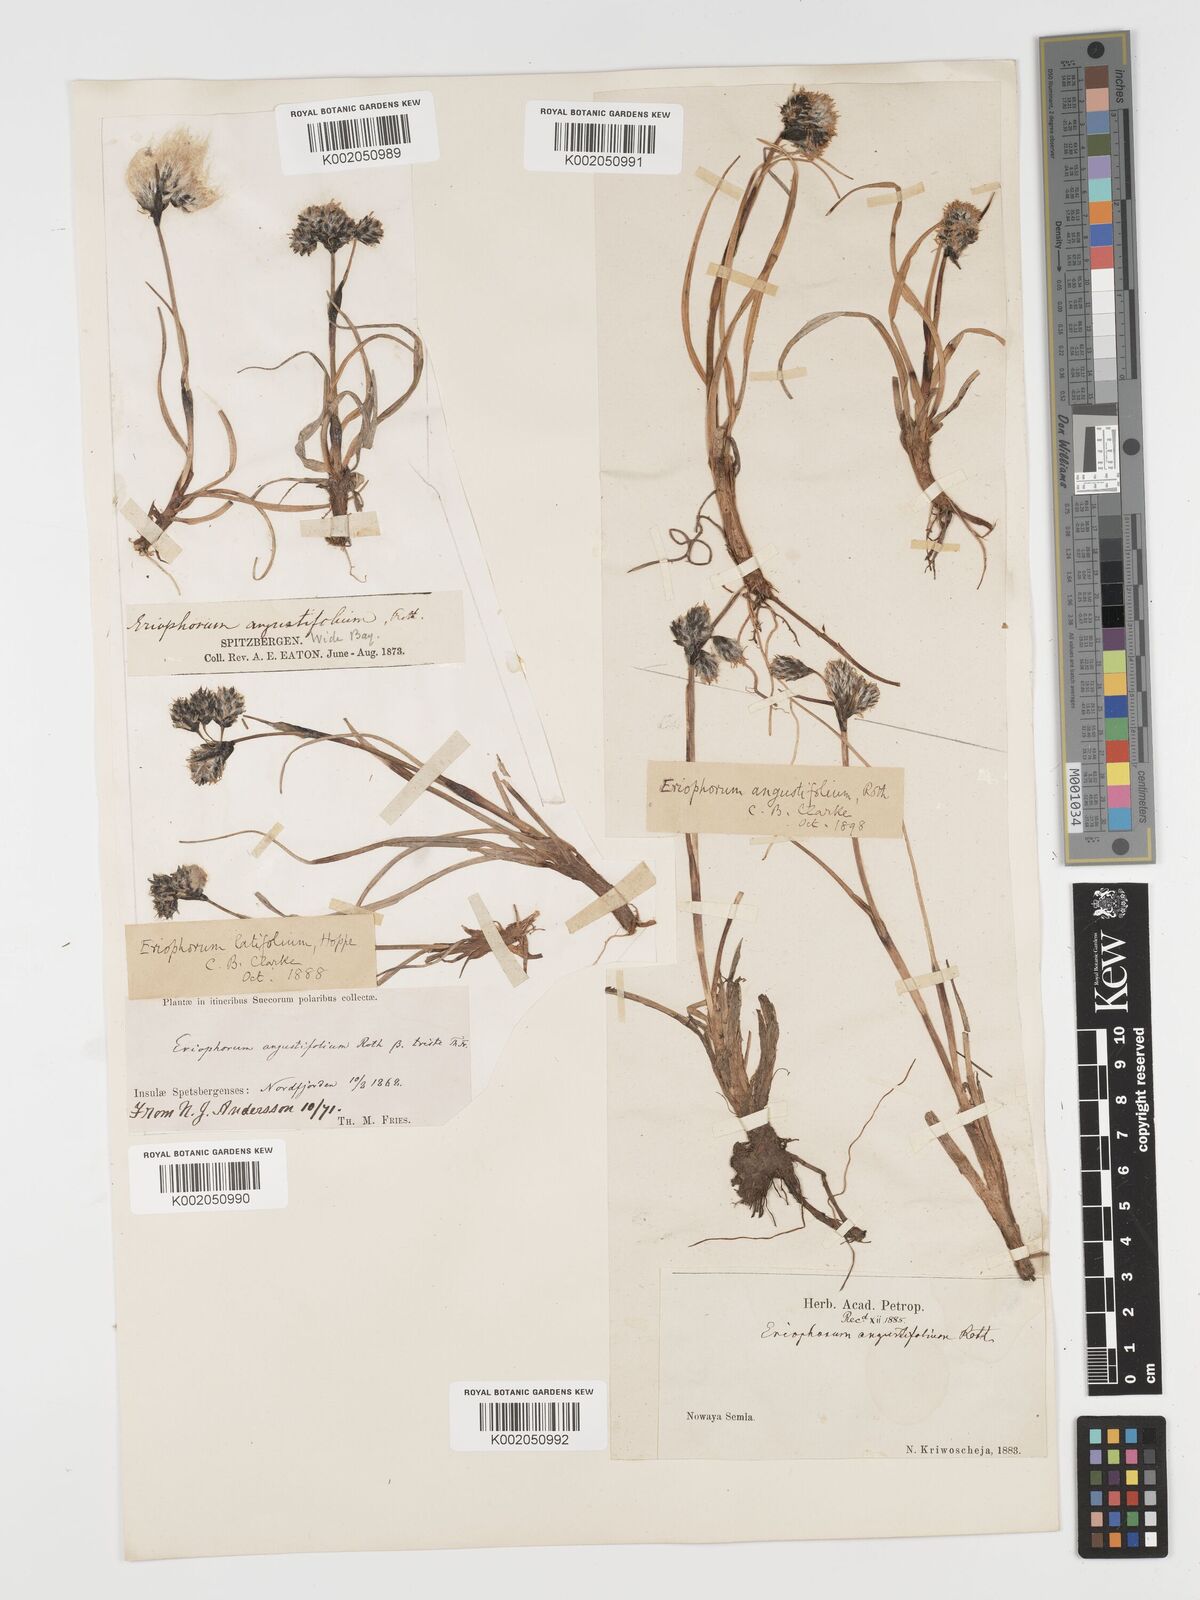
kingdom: Plantae
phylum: Tracheophyta
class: Liliopsida
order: Poales
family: Cyperaceae
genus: Eriophorum
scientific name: Eriophorum angustifolium
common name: Common cottongrass
